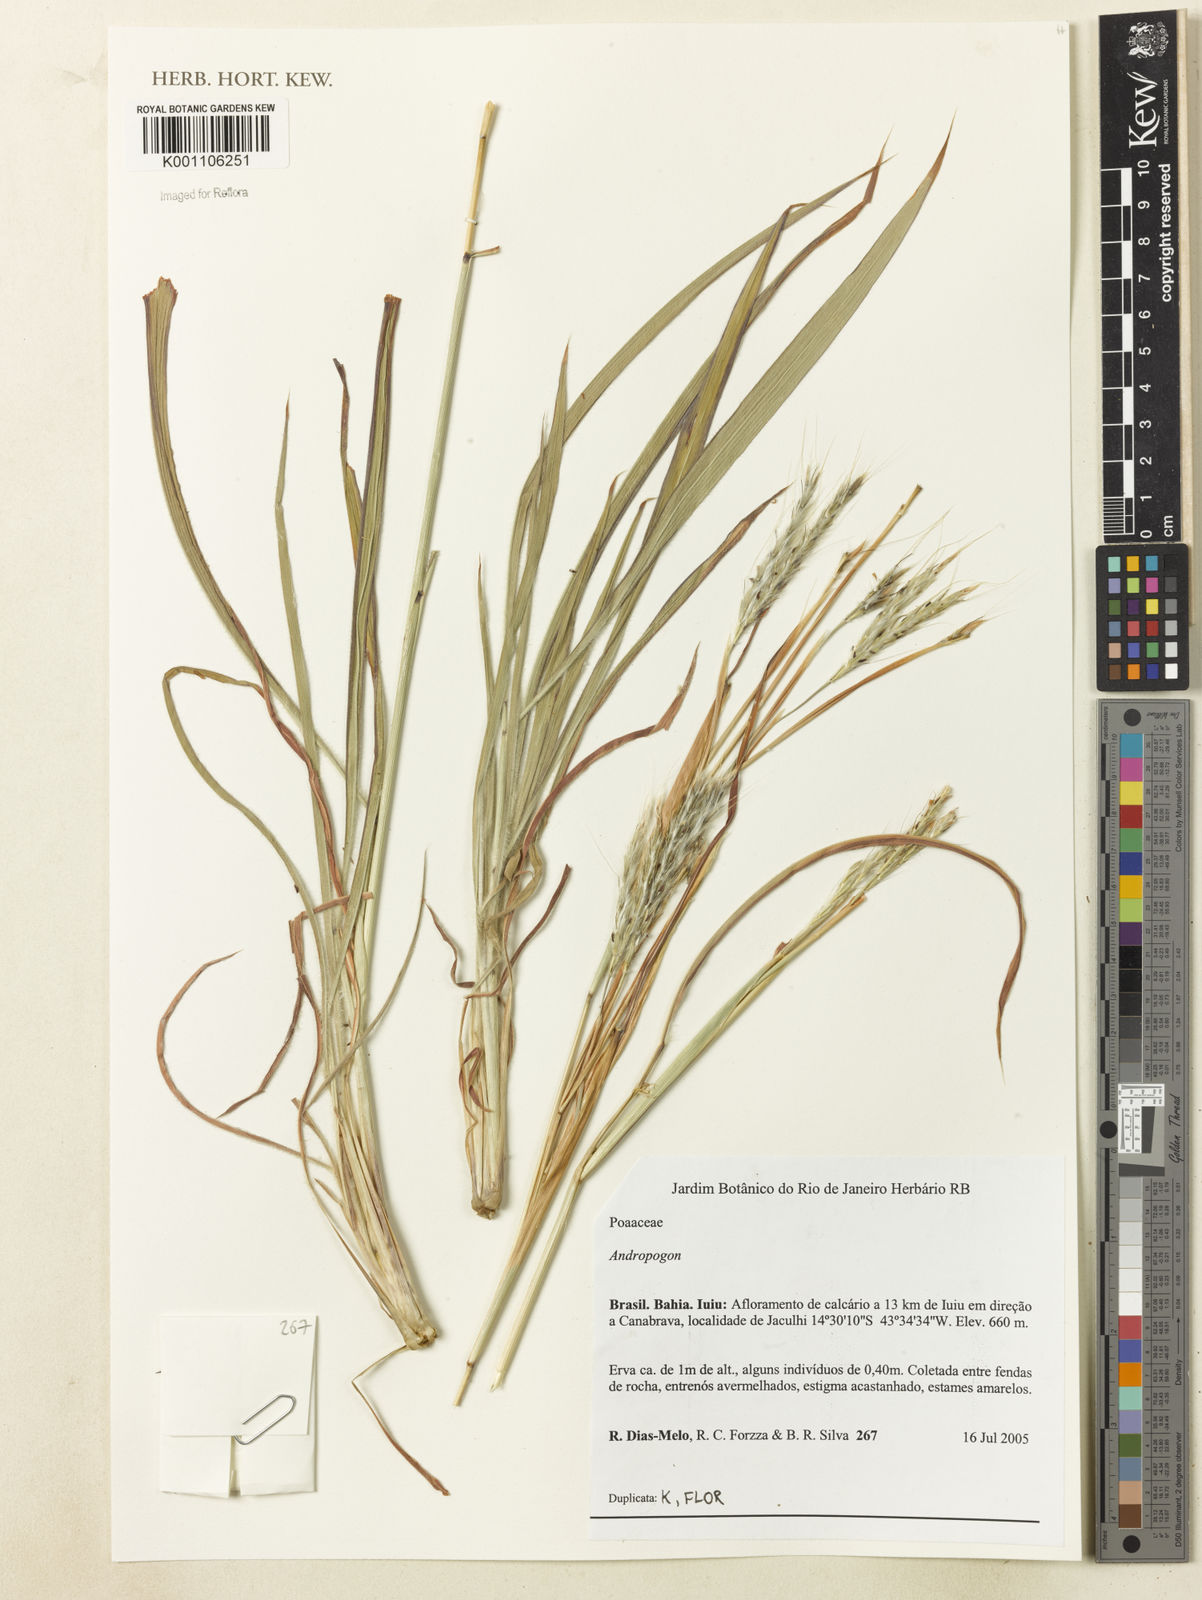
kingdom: Plantae
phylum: Tracheophyta
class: Liliopsida
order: Poales
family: Poaceae
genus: Andropogon
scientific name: Andropogon
